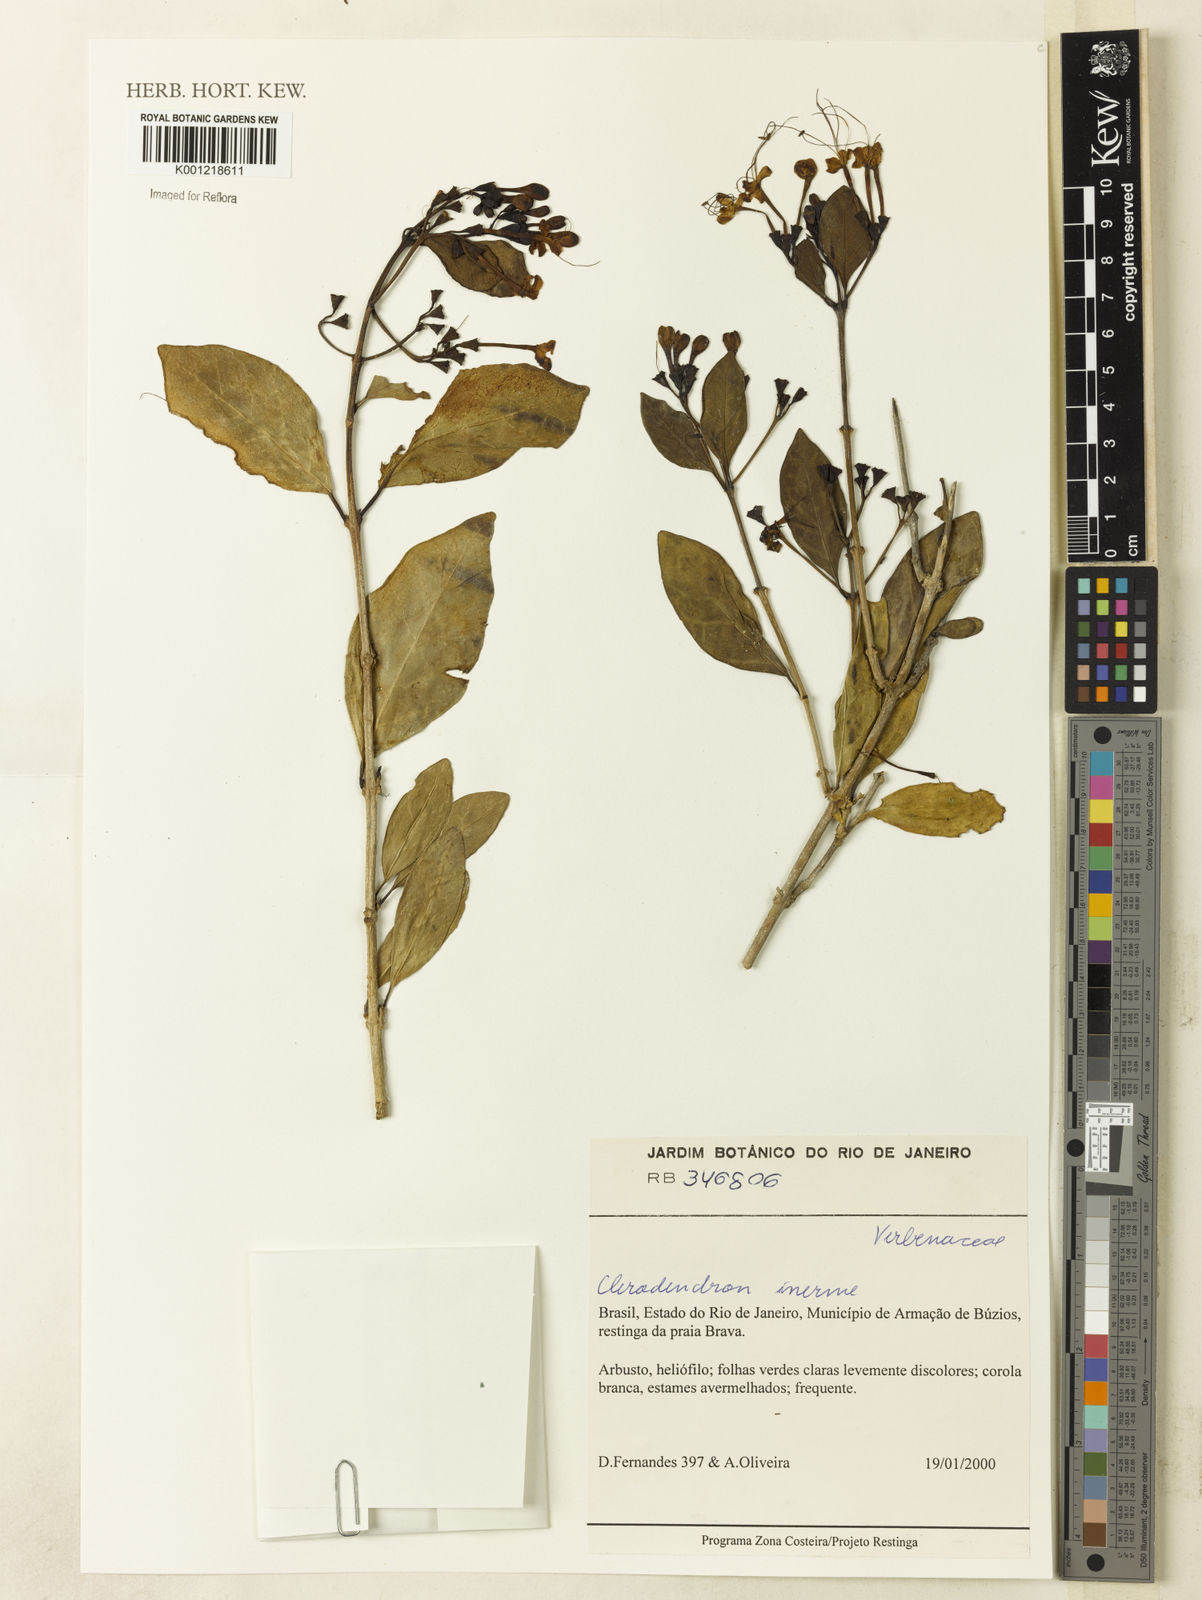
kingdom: Plantae
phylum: Tracheophyta
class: Magnoliopsida
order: Lamiales
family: Lamiaceae
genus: Volkameria
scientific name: Volkameria inermis
